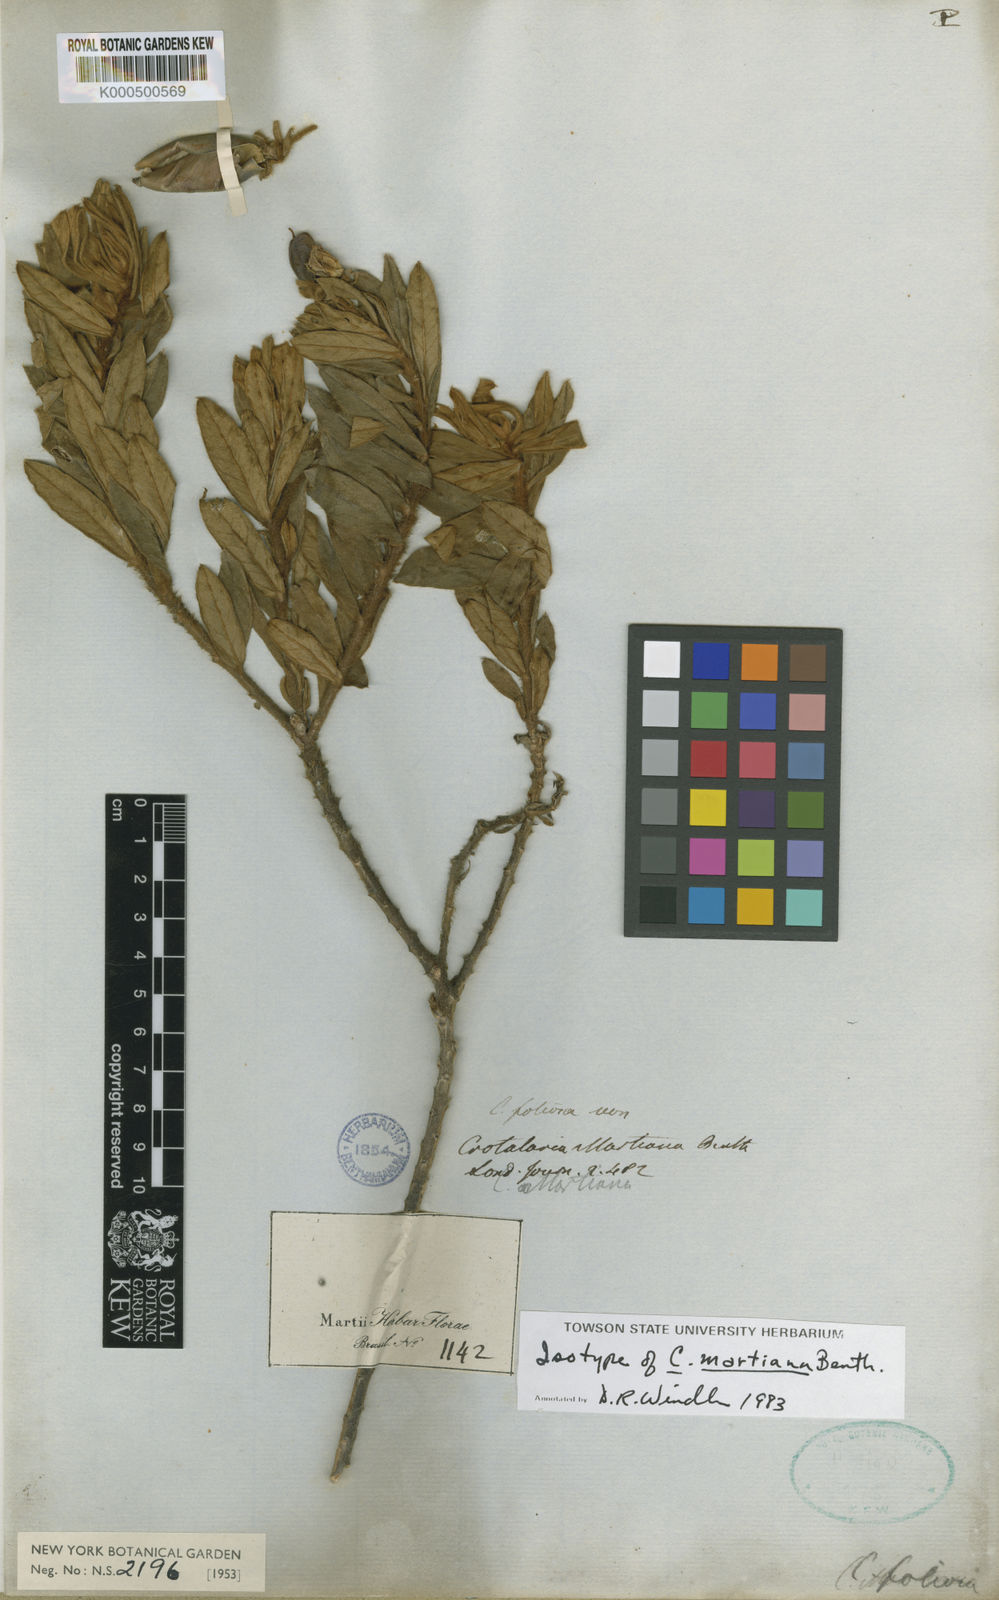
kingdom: Plantae
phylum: Tracheophyta
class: Magnoliopsida
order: Fabales
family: Fabaceae
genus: Crotalaria
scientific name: Crotalaria martiana
